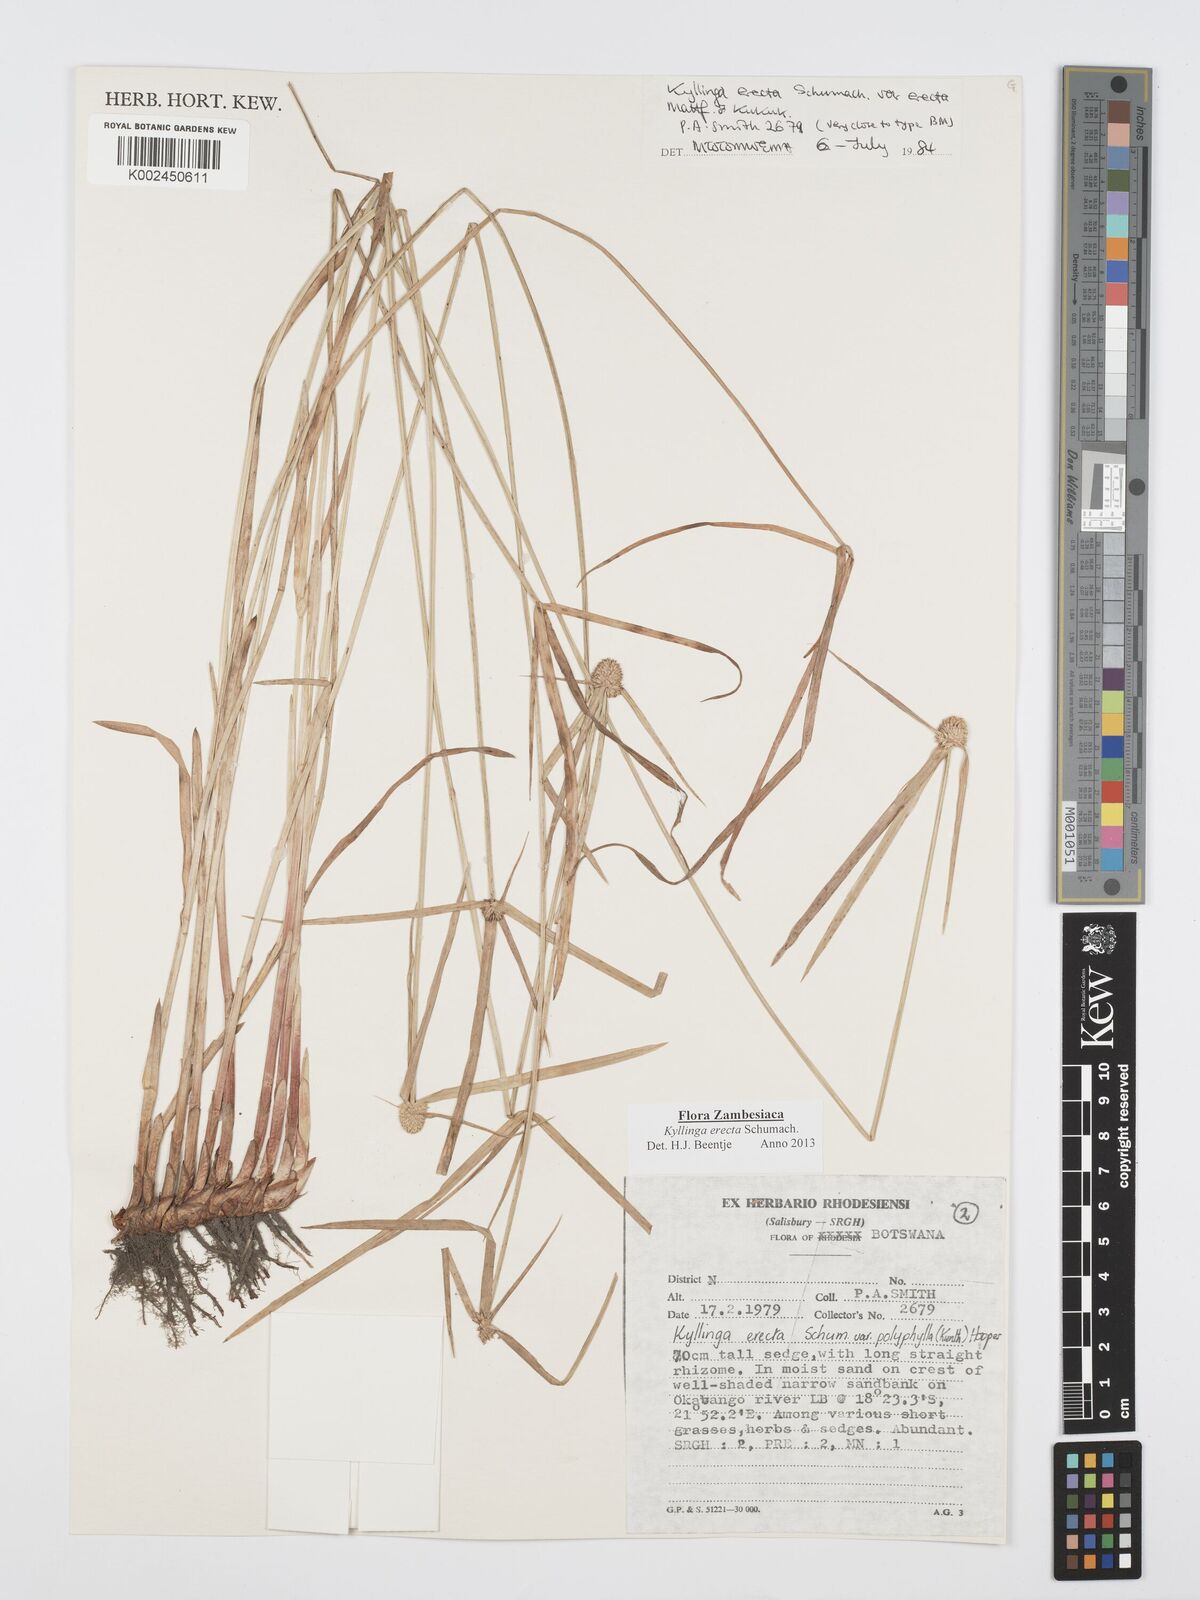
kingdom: Plantae
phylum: Tracheophyta
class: Liliopsida
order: Poales
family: Cyperaceae
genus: Cyperus
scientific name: Cyperus erectus
